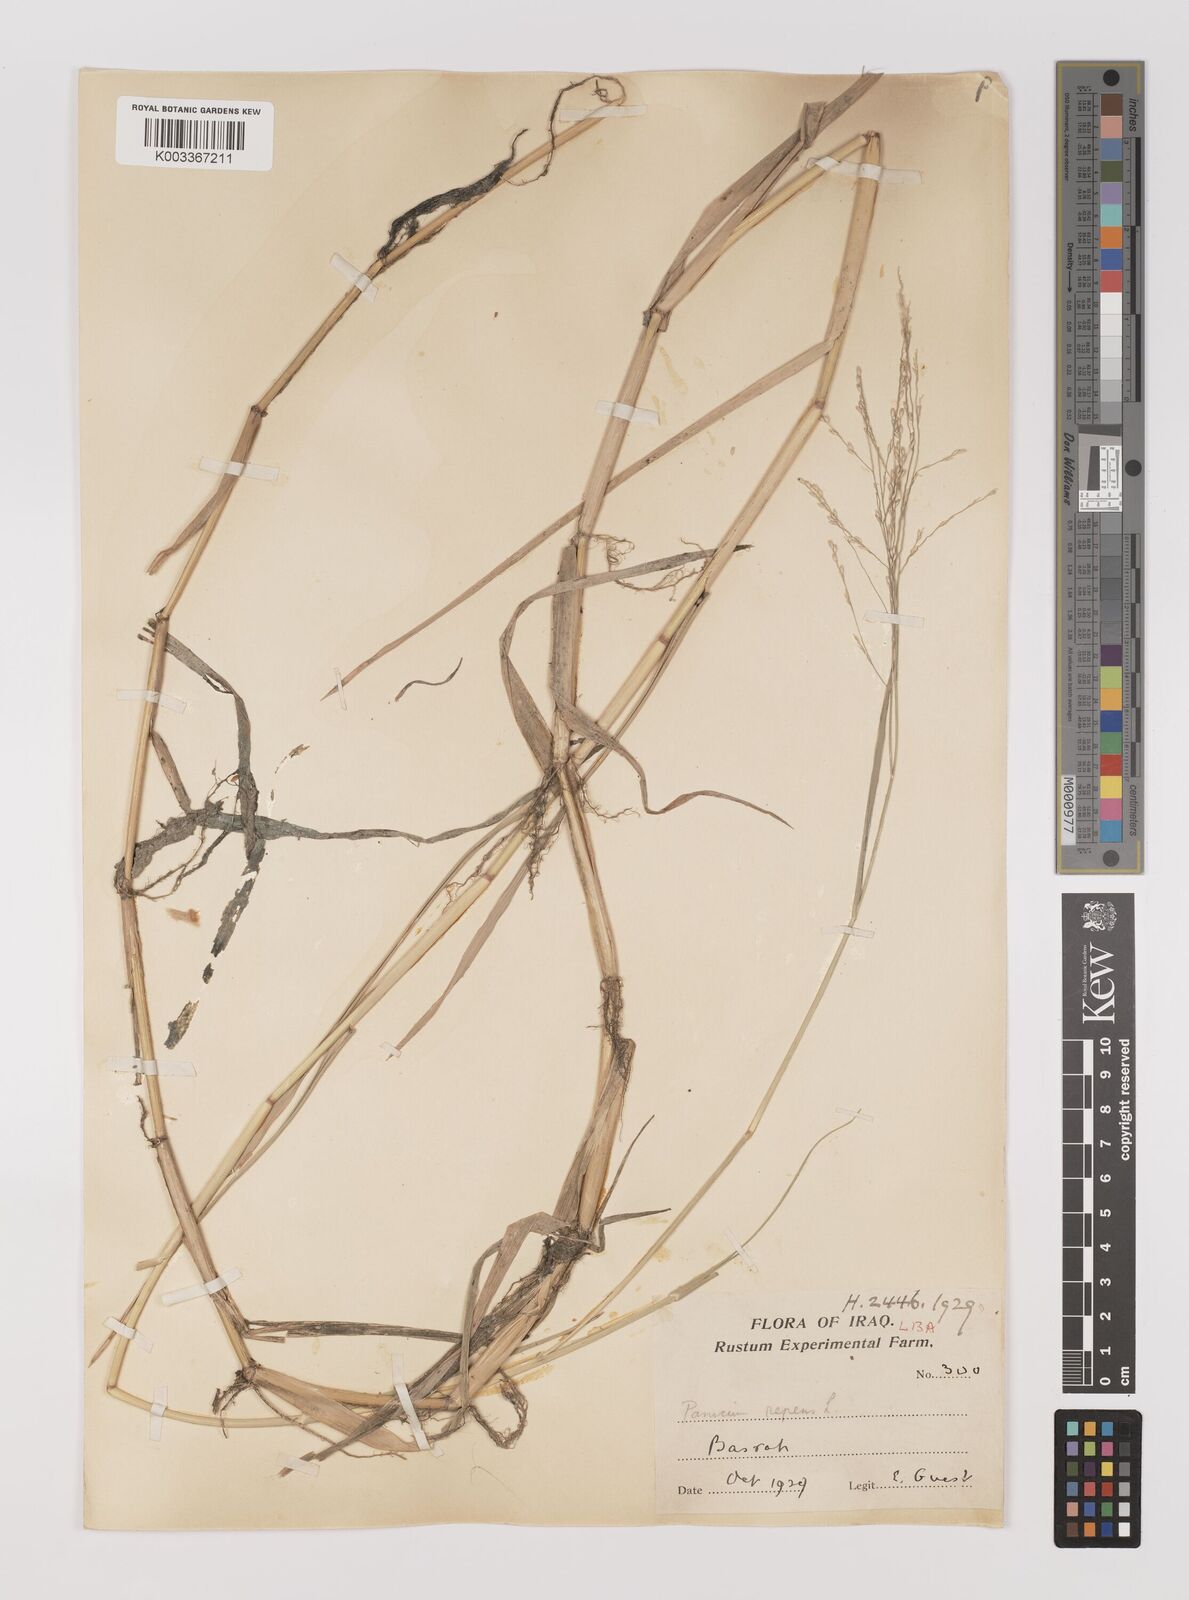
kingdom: Plantae
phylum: Tracheophyta
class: Liliopsida
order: Poales
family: Poaceae
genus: Panicum
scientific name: Panicum repens
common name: Torpedo grass
